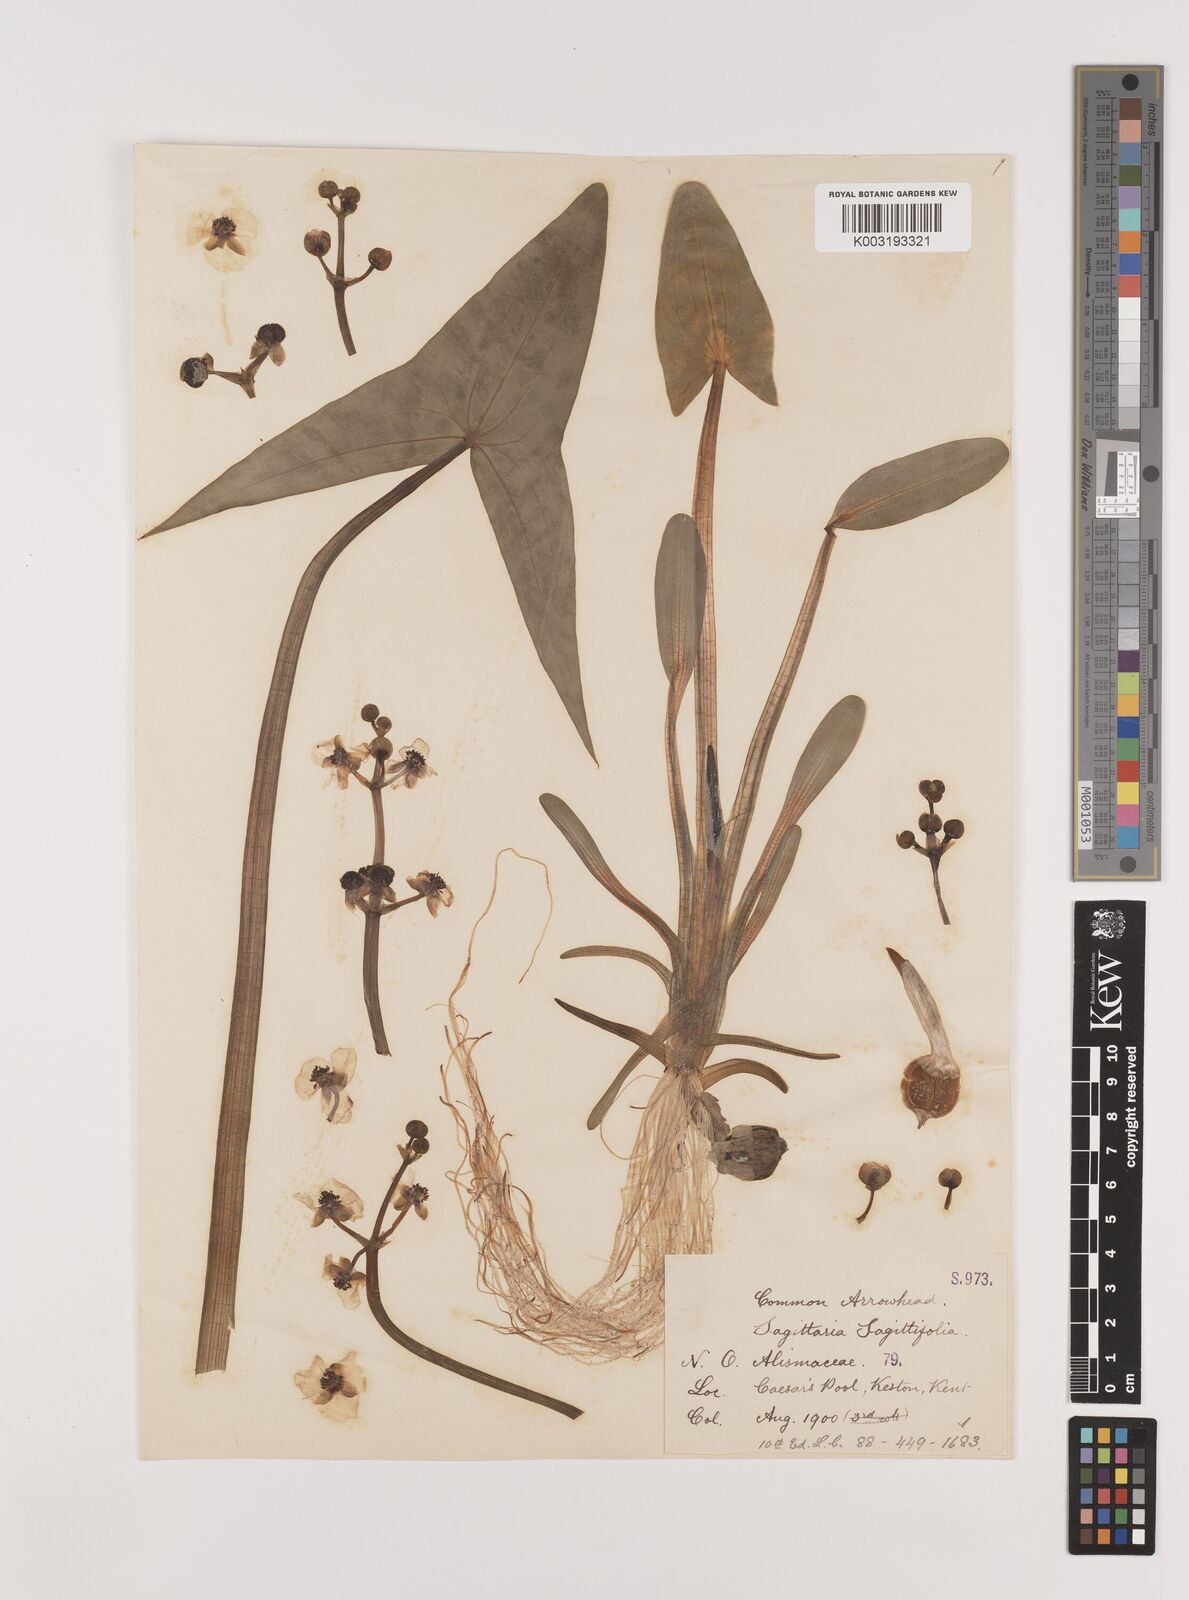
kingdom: Plantae
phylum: Tracheophyta
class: Liliopsida
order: Alismatales
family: Alismataceae
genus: Sagittaria
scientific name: Sagittaria sagittifolia
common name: Arrowhead
